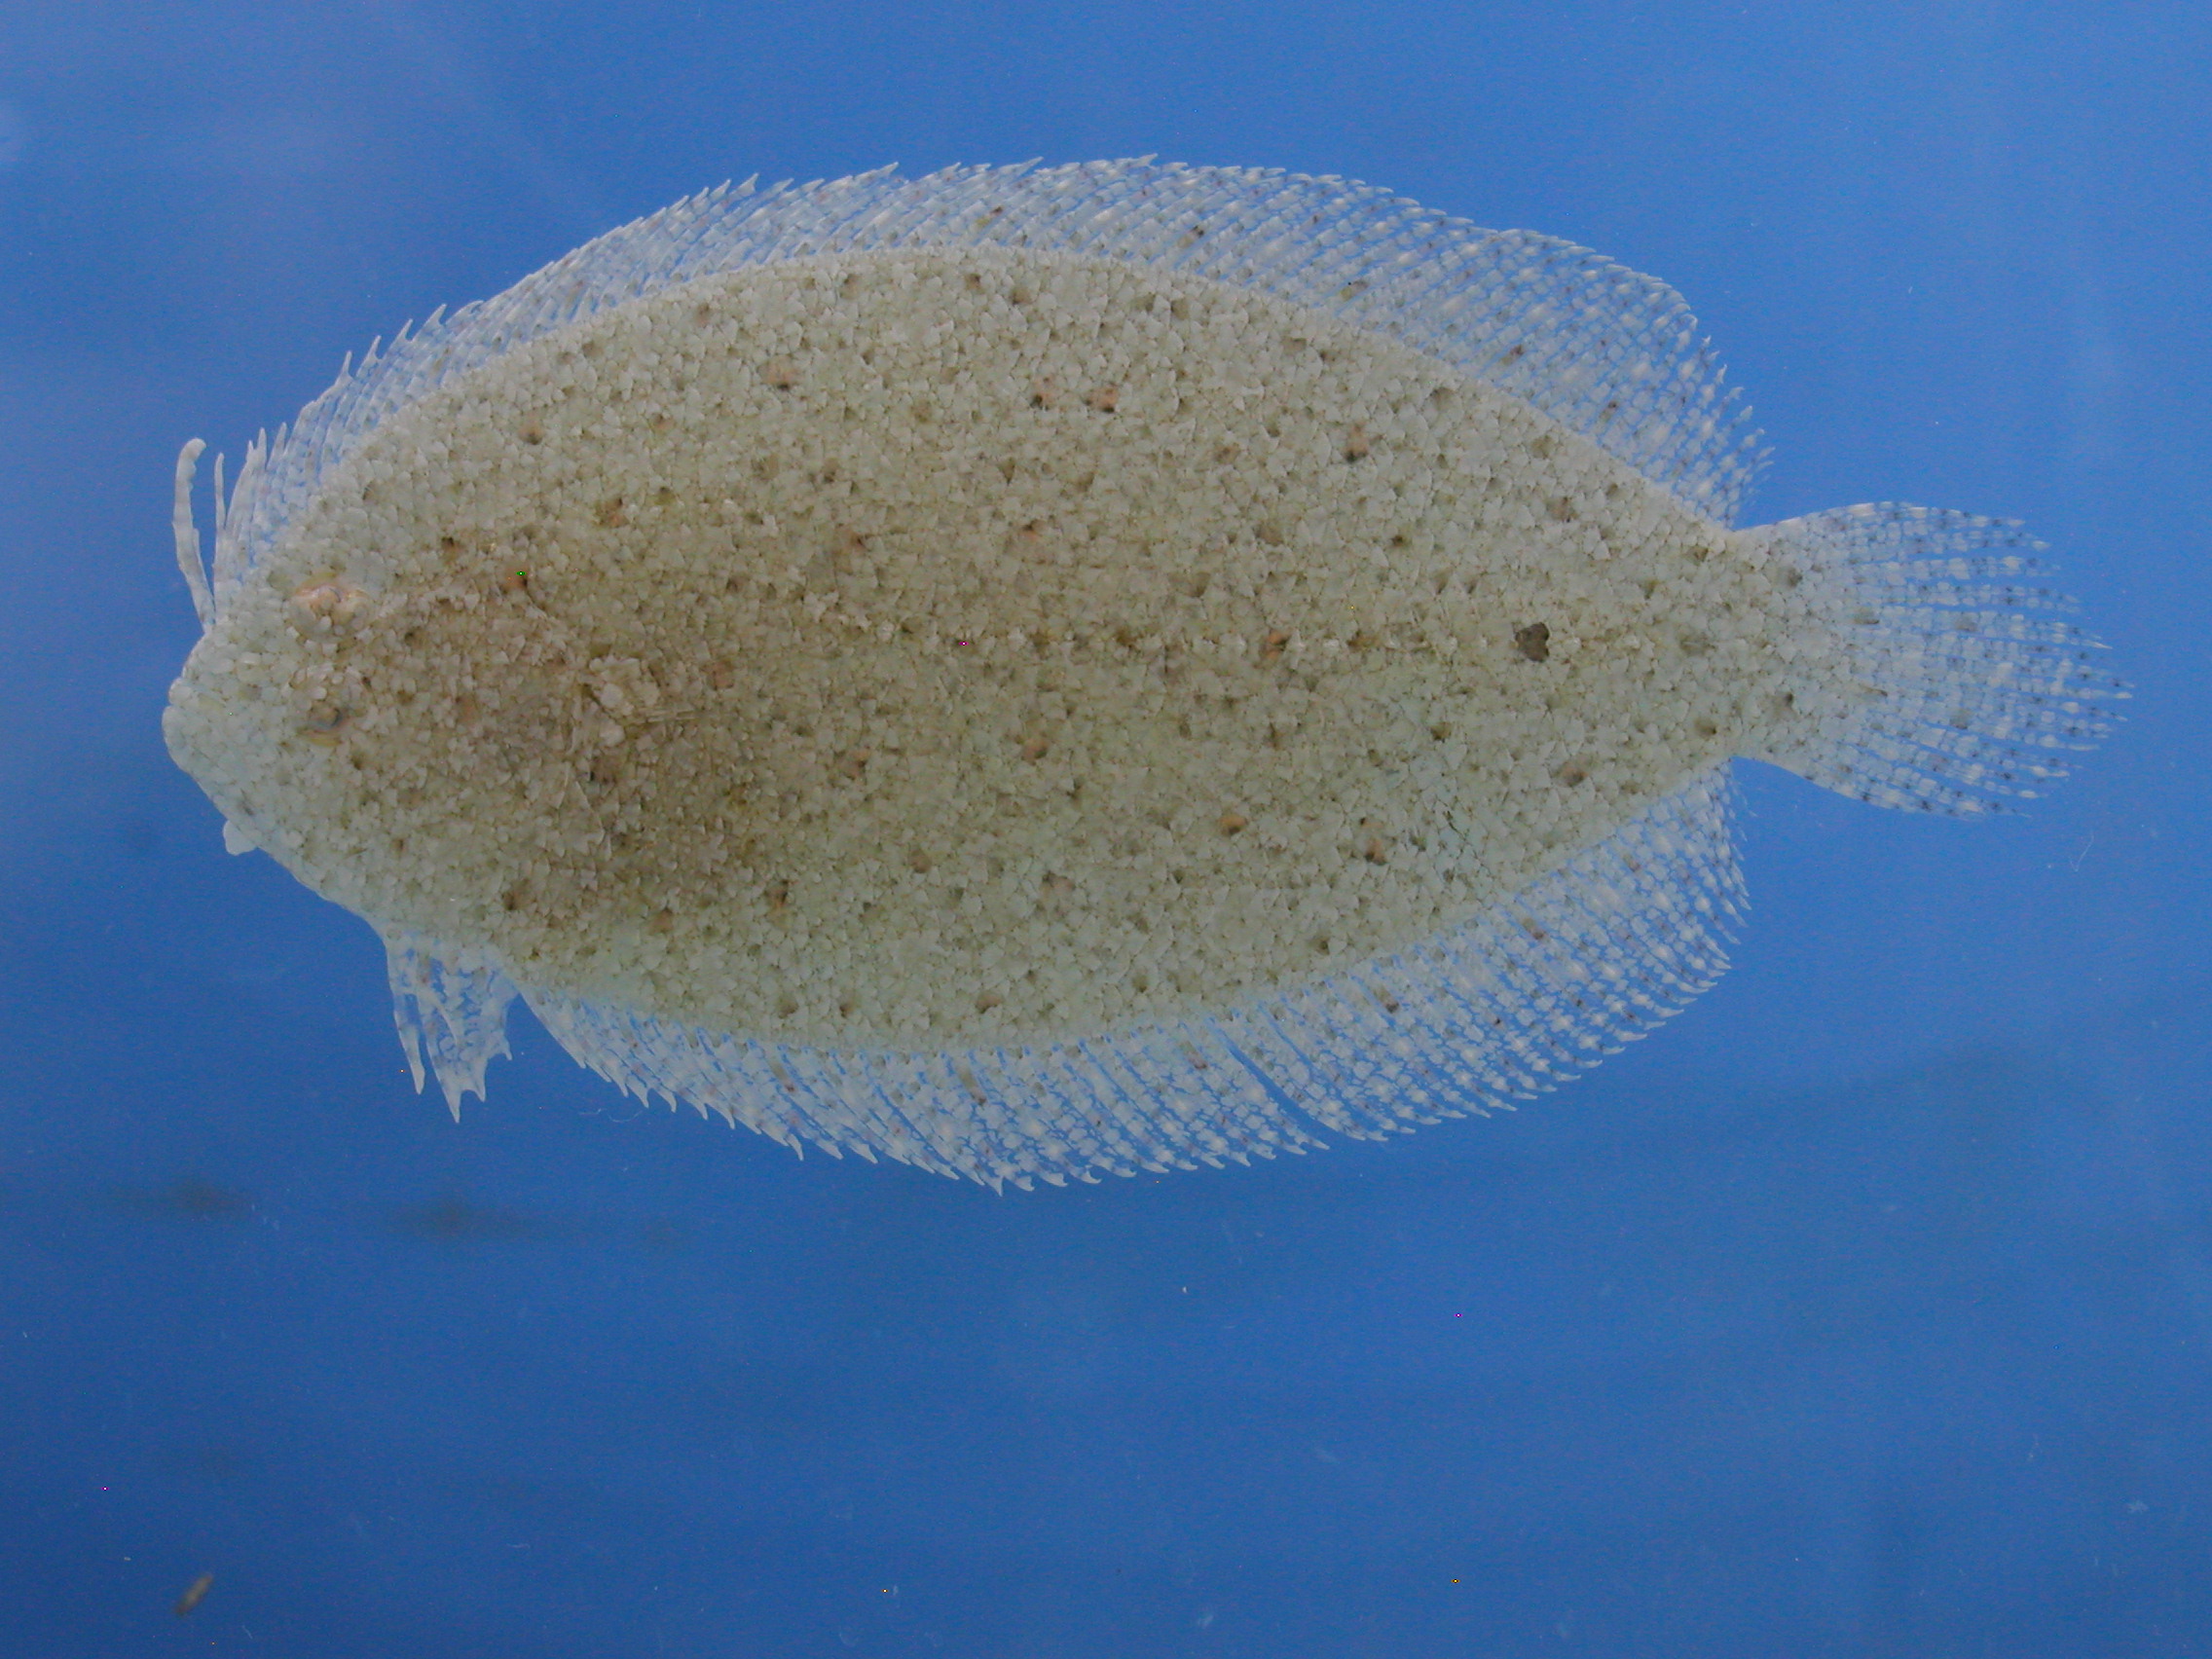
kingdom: Animalia
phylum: Chordata
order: Pleuronectiformes
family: Bothidae
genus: Asterorhombus
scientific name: Asterorhombus intermedius
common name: Intermediate flounder
